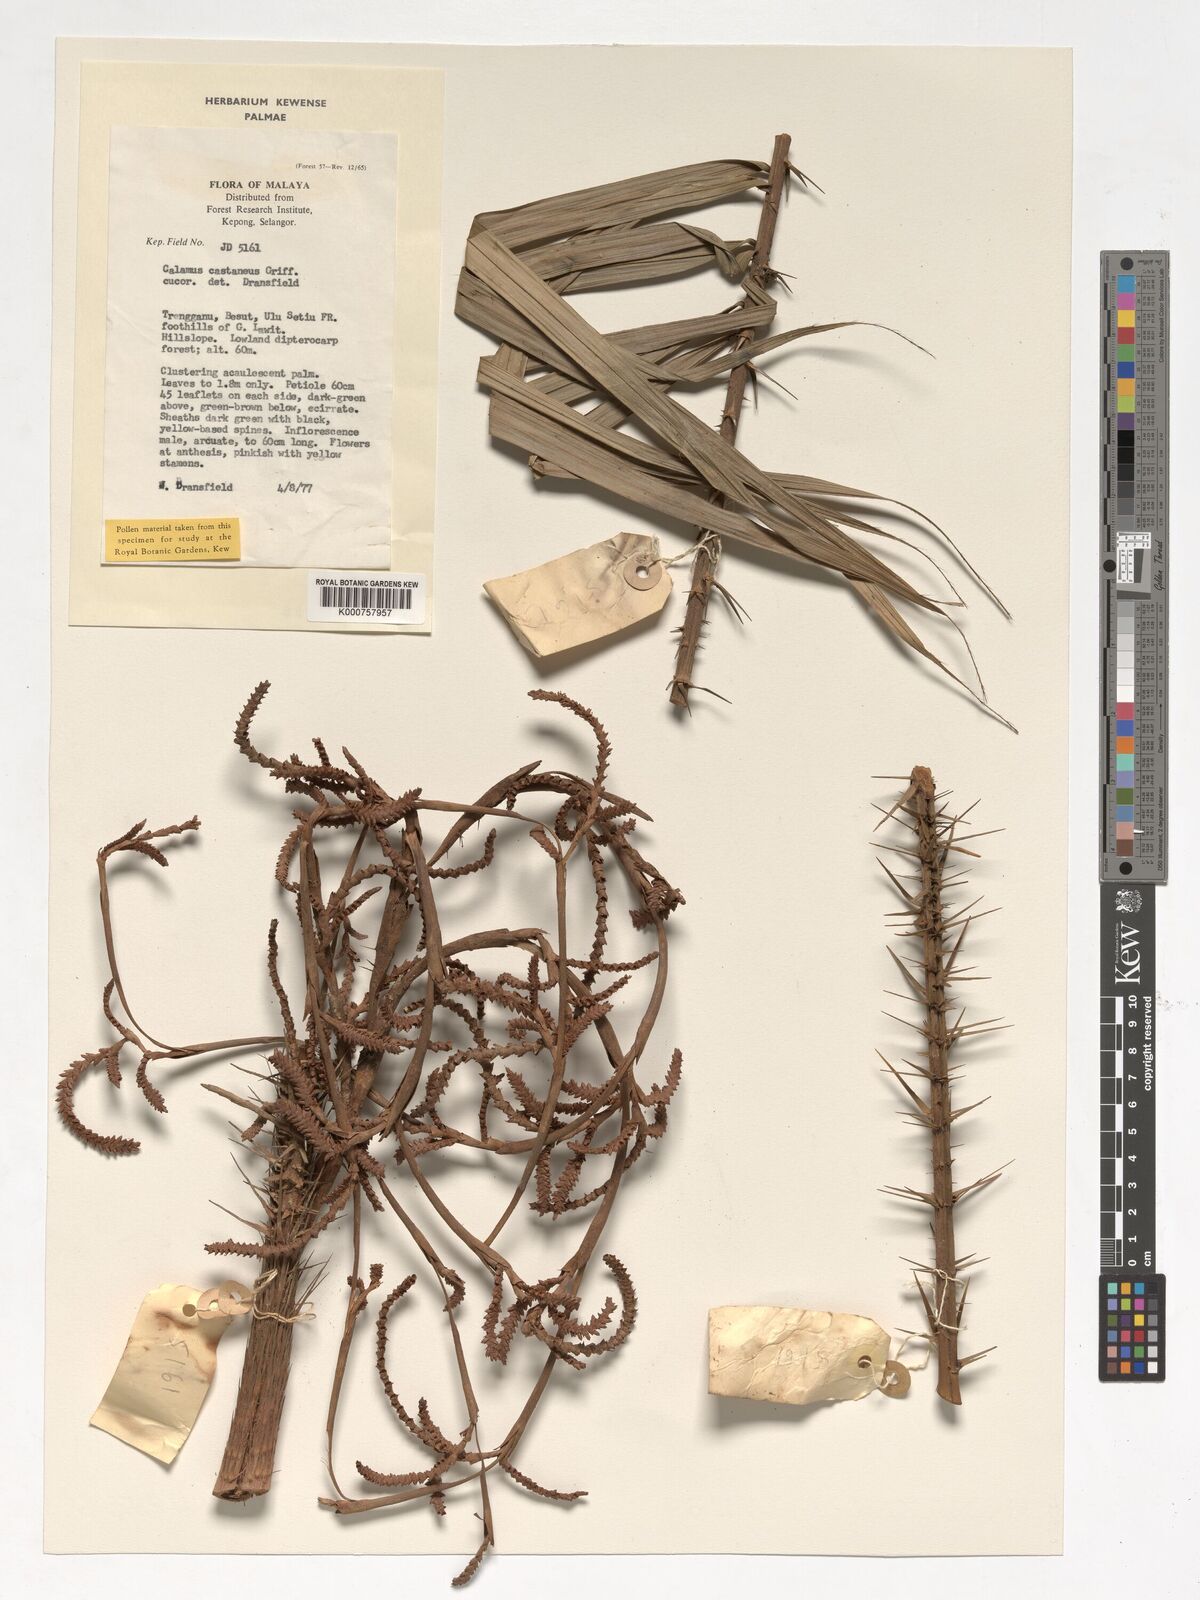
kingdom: Plantae
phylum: Tracheophyta
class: Liliopsida
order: Arecales
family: Arecaceae
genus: Calamus
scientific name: Calamus castaneus
